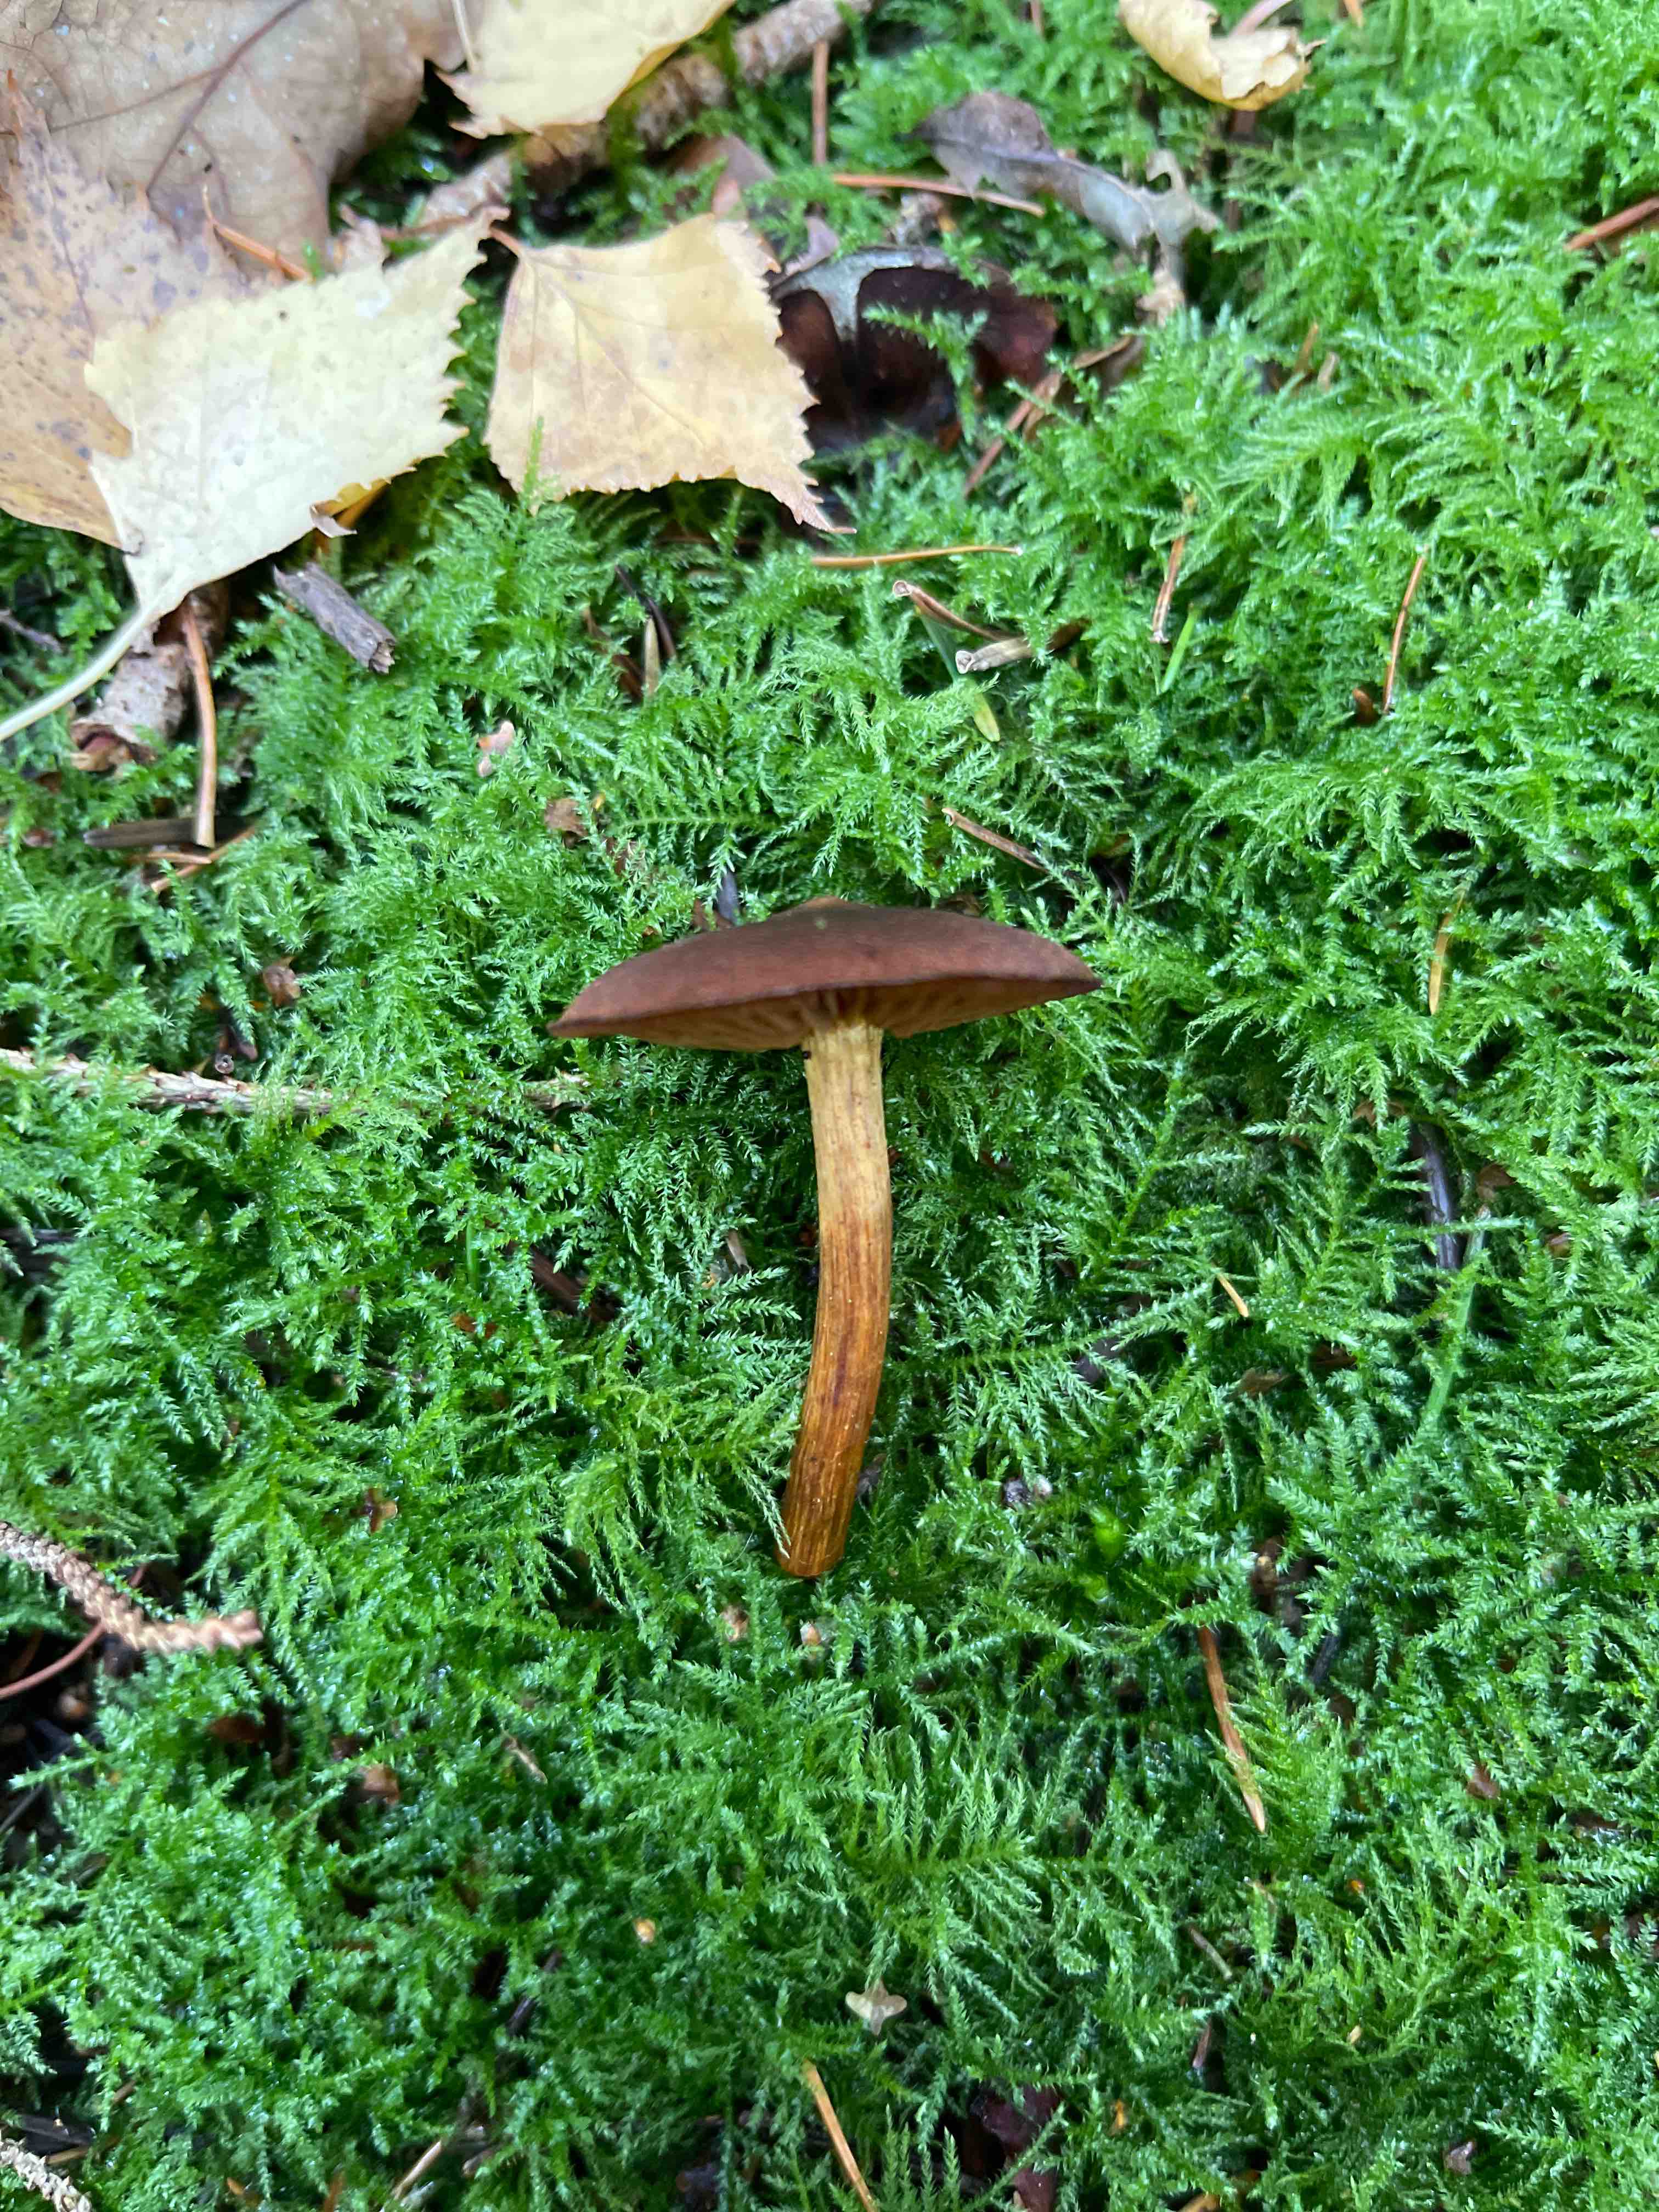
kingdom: Fungi
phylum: Basidiomycota
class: Agaricomycetes
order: Agaricales
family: Cortinariaceae
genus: Cortinarius
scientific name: Cortinarius
